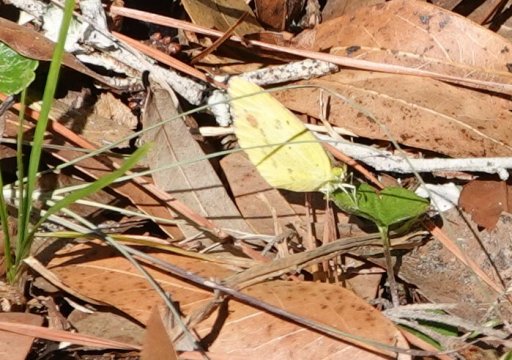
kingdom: Animalia
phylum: Arthropoda
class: Insecta
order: Lepidoptera
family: Pieridae
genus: Pyrisitia
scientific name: Pyrisitia lisa
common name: Little Yellow
